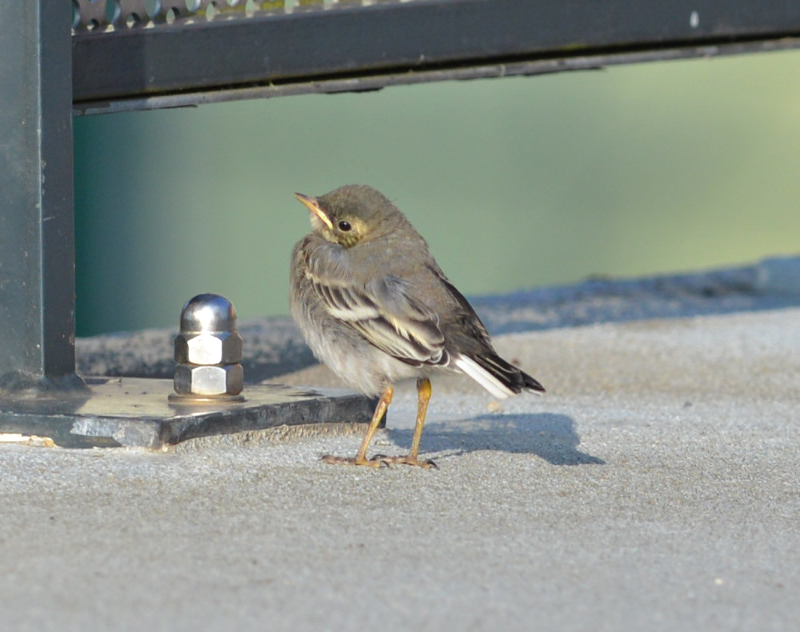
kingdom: Animalia
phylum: Chordata
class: Aves
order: Passeriformes
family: Motacillidae
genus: Motacilla
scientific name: Motacilla alba
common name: White wagtail
